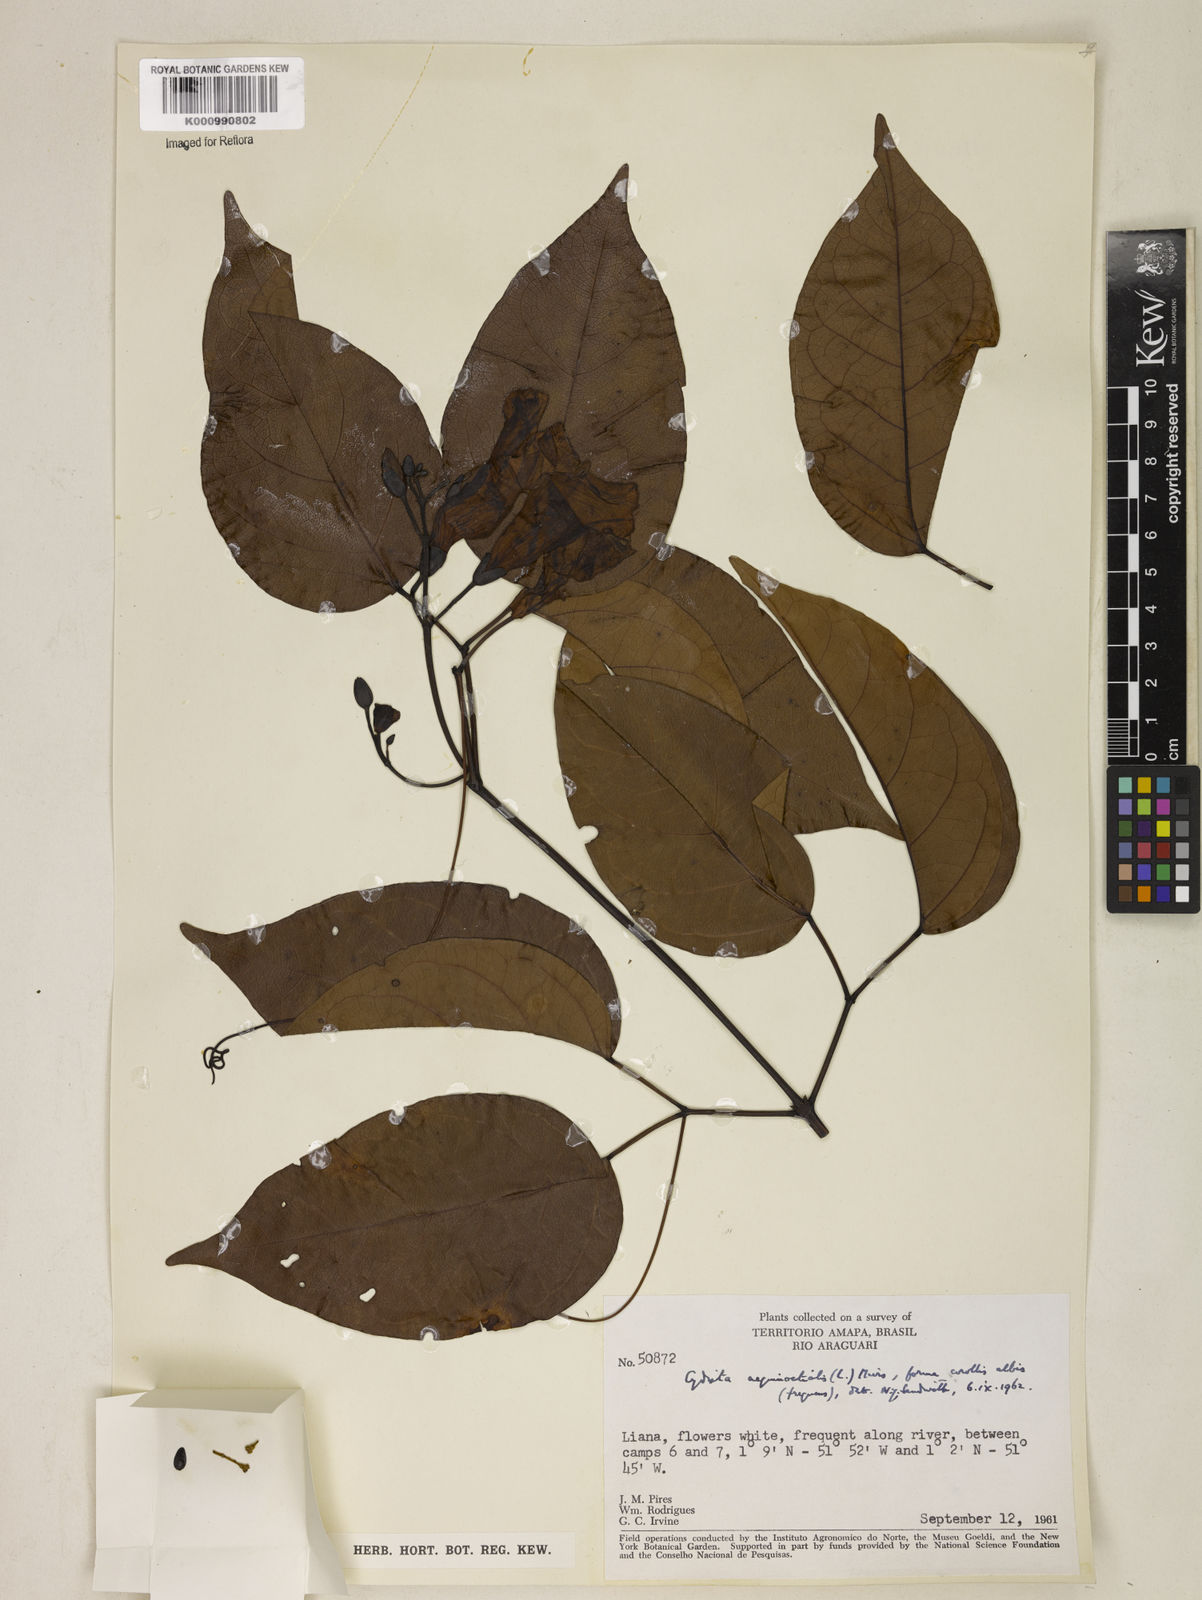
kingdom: Plantae
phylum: Tracheophyta
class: Magnoliopsida
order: Lamiales
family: Bignoniaceae
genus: Bignonia
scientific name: Bignonia aequinoctialis
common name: Garlicvine
